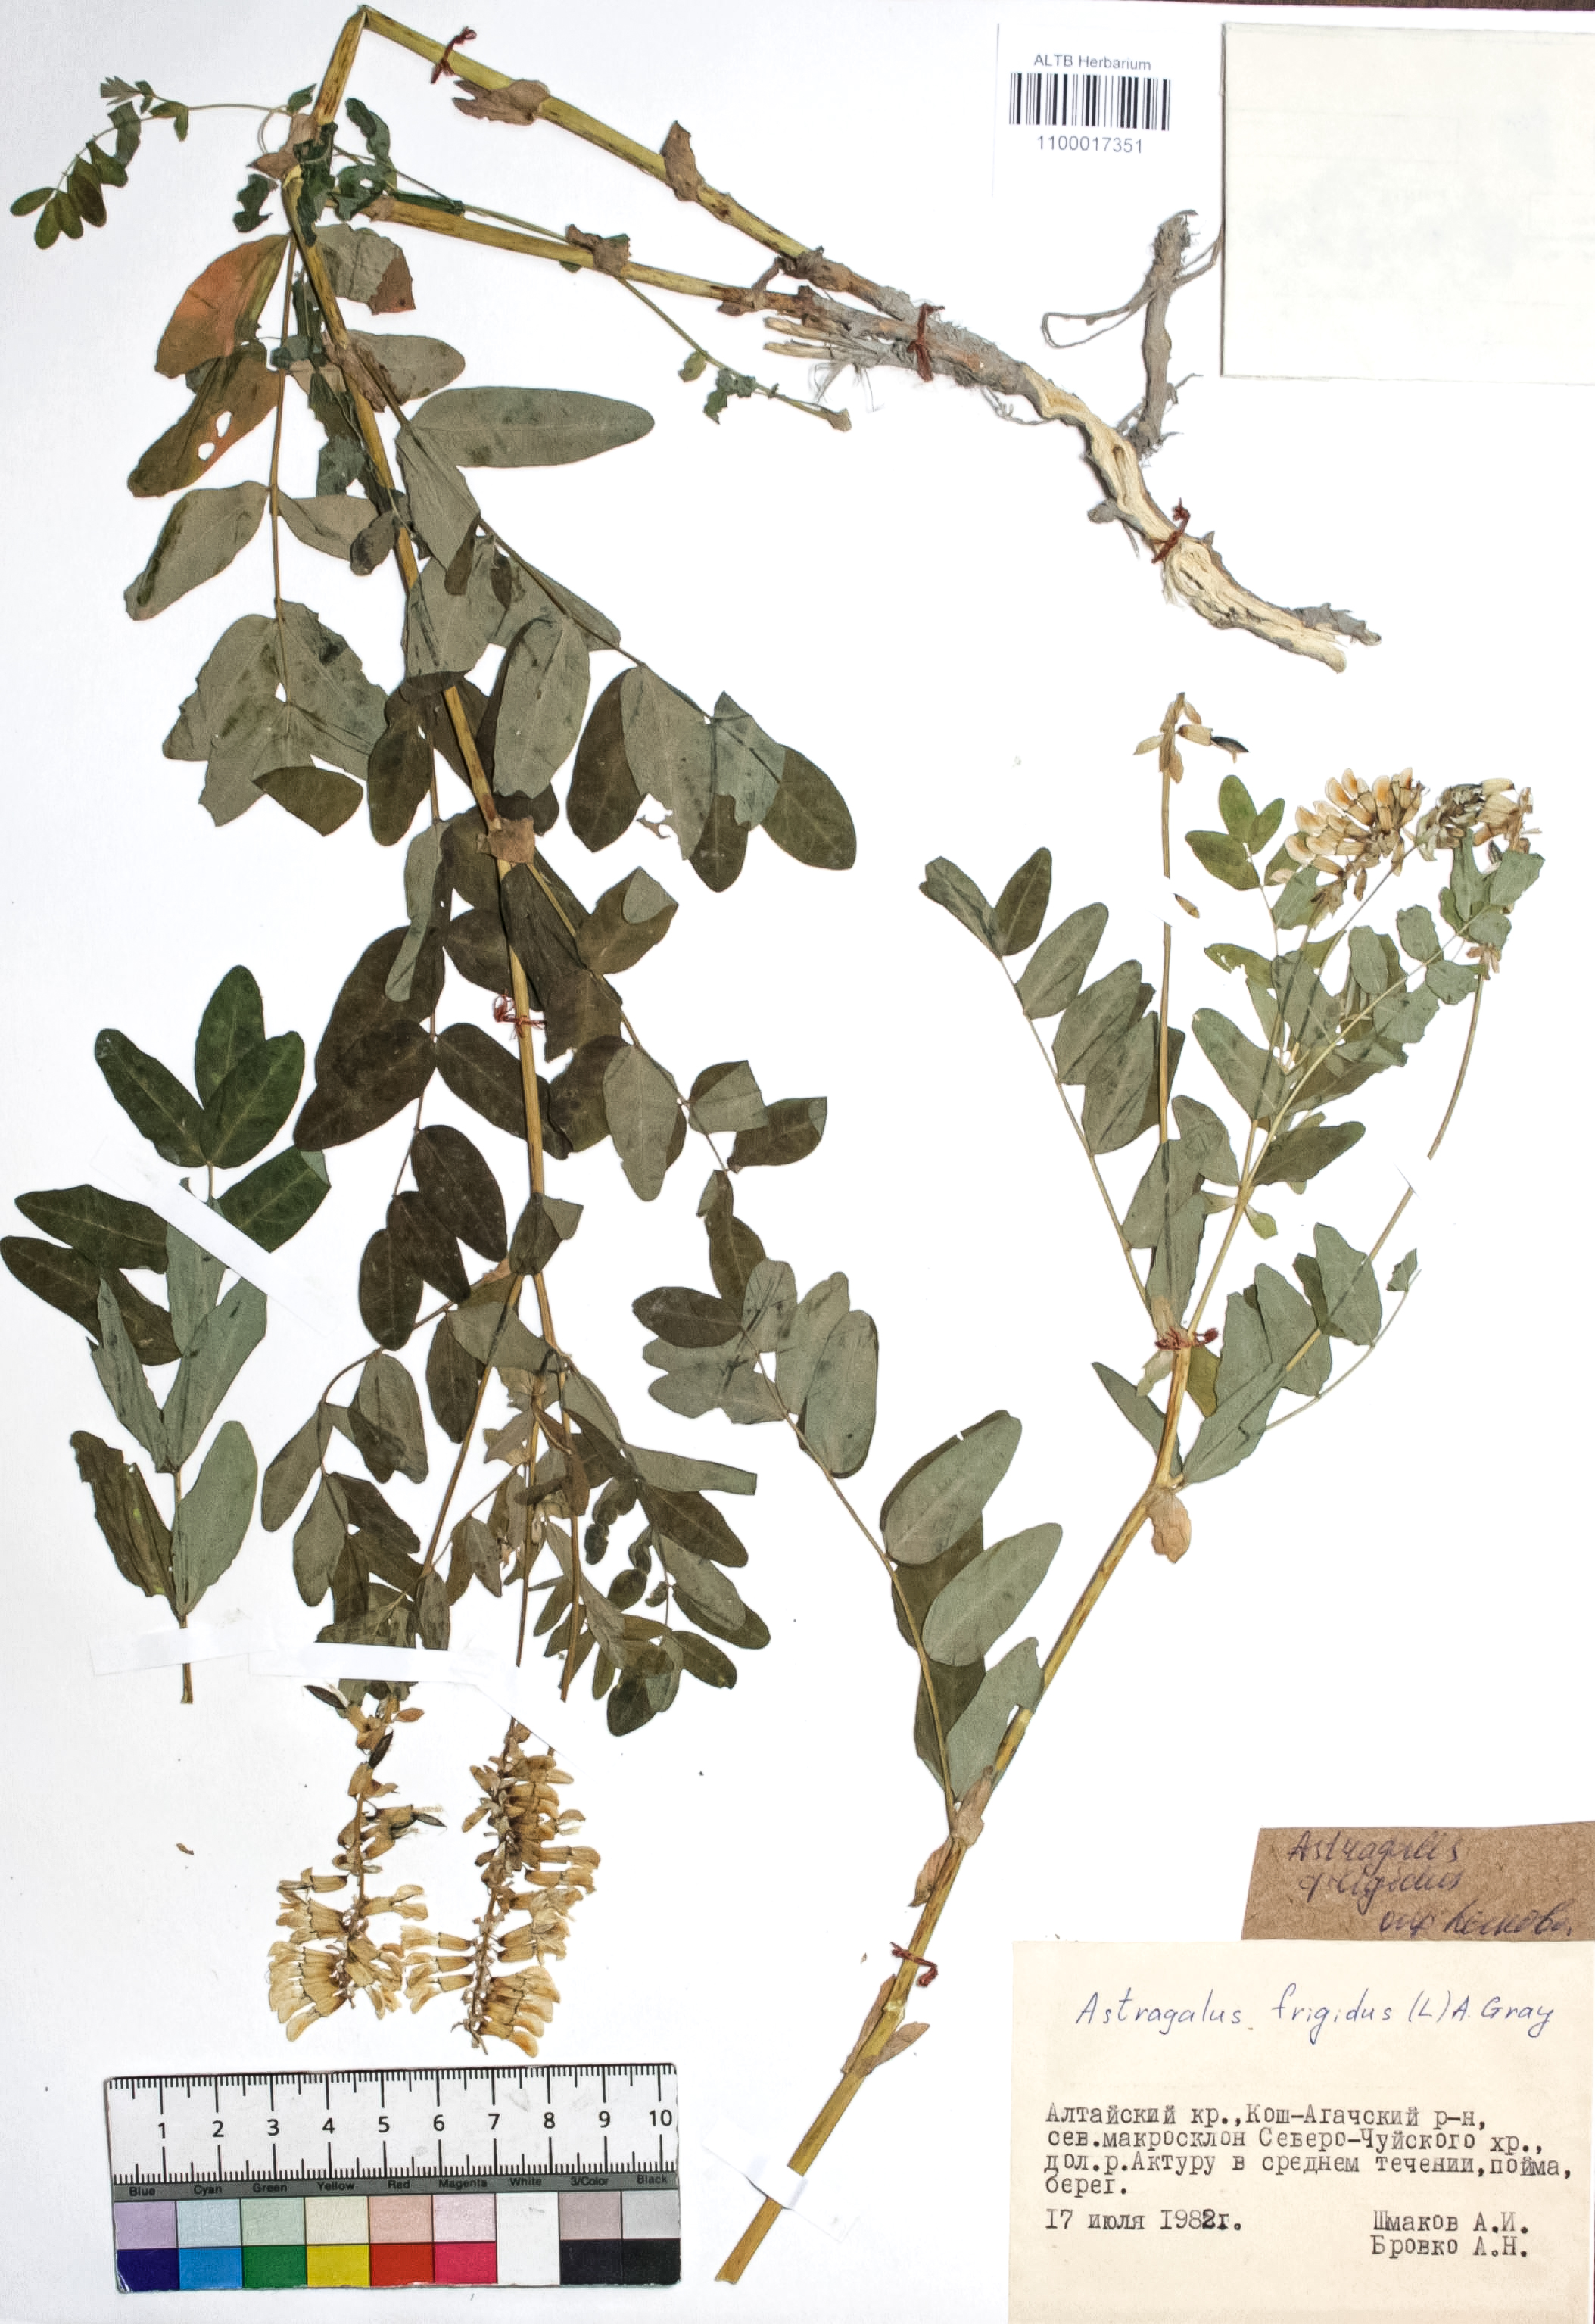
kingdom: Plantae
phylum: Tracheophyta
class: Magnoliopsida
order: Fabales
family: Fabaceae
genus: Astragalus
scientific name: Astragalus frigidus
